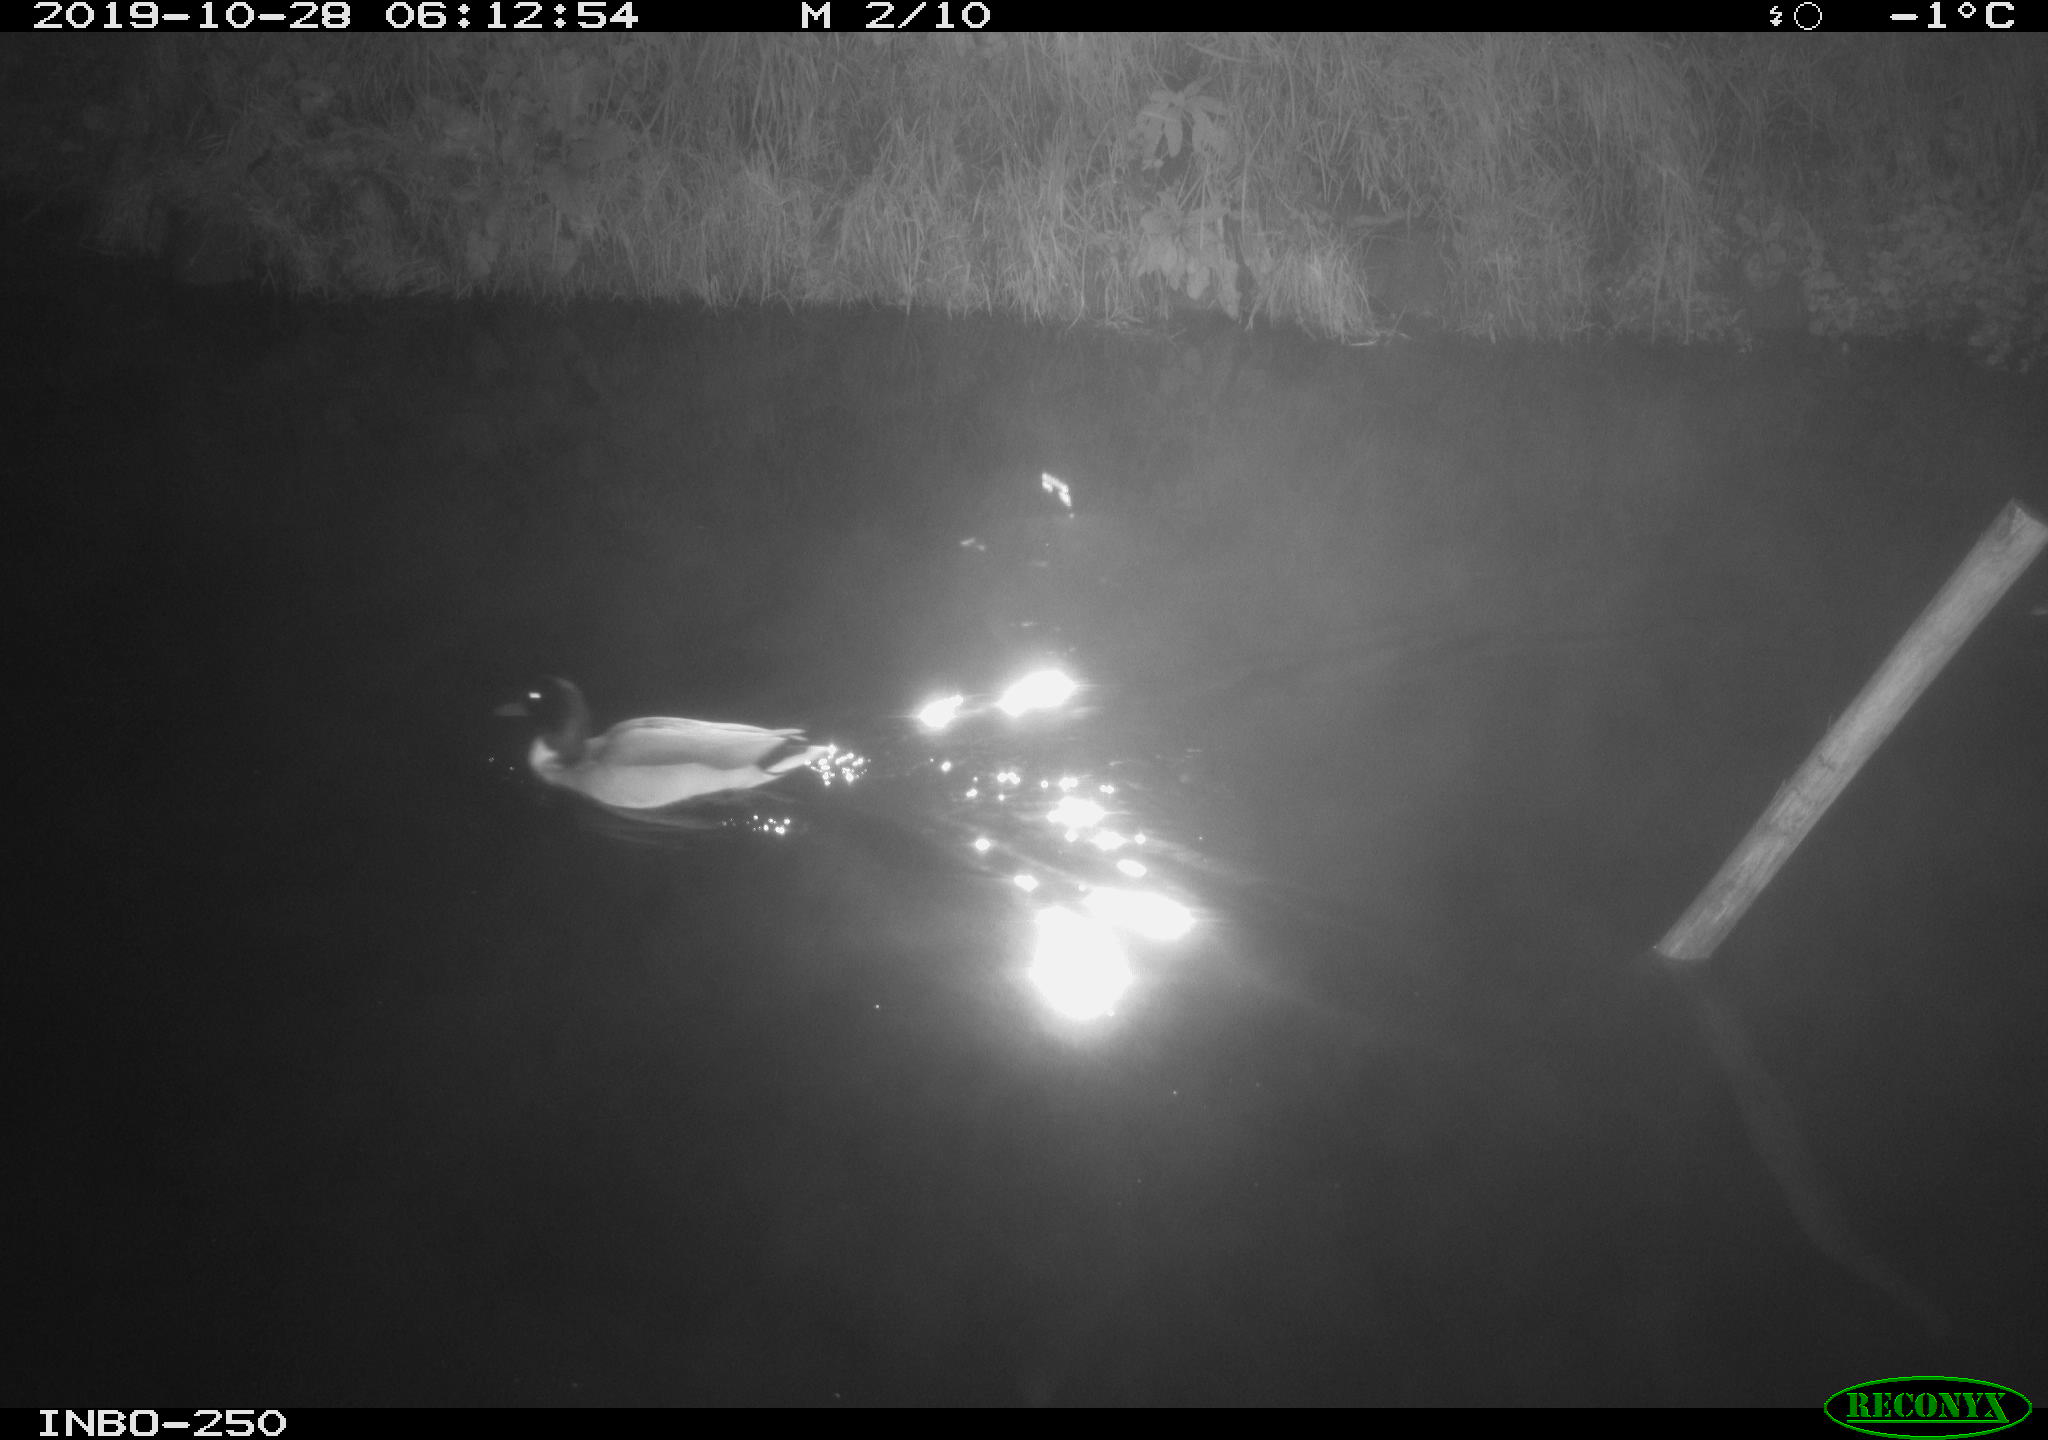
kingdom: Animalia
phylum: Chordata
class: Aves
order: Anseriformes
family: Anatidae
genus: Anas
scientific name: Anas platyrhynchos
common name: Mallard
